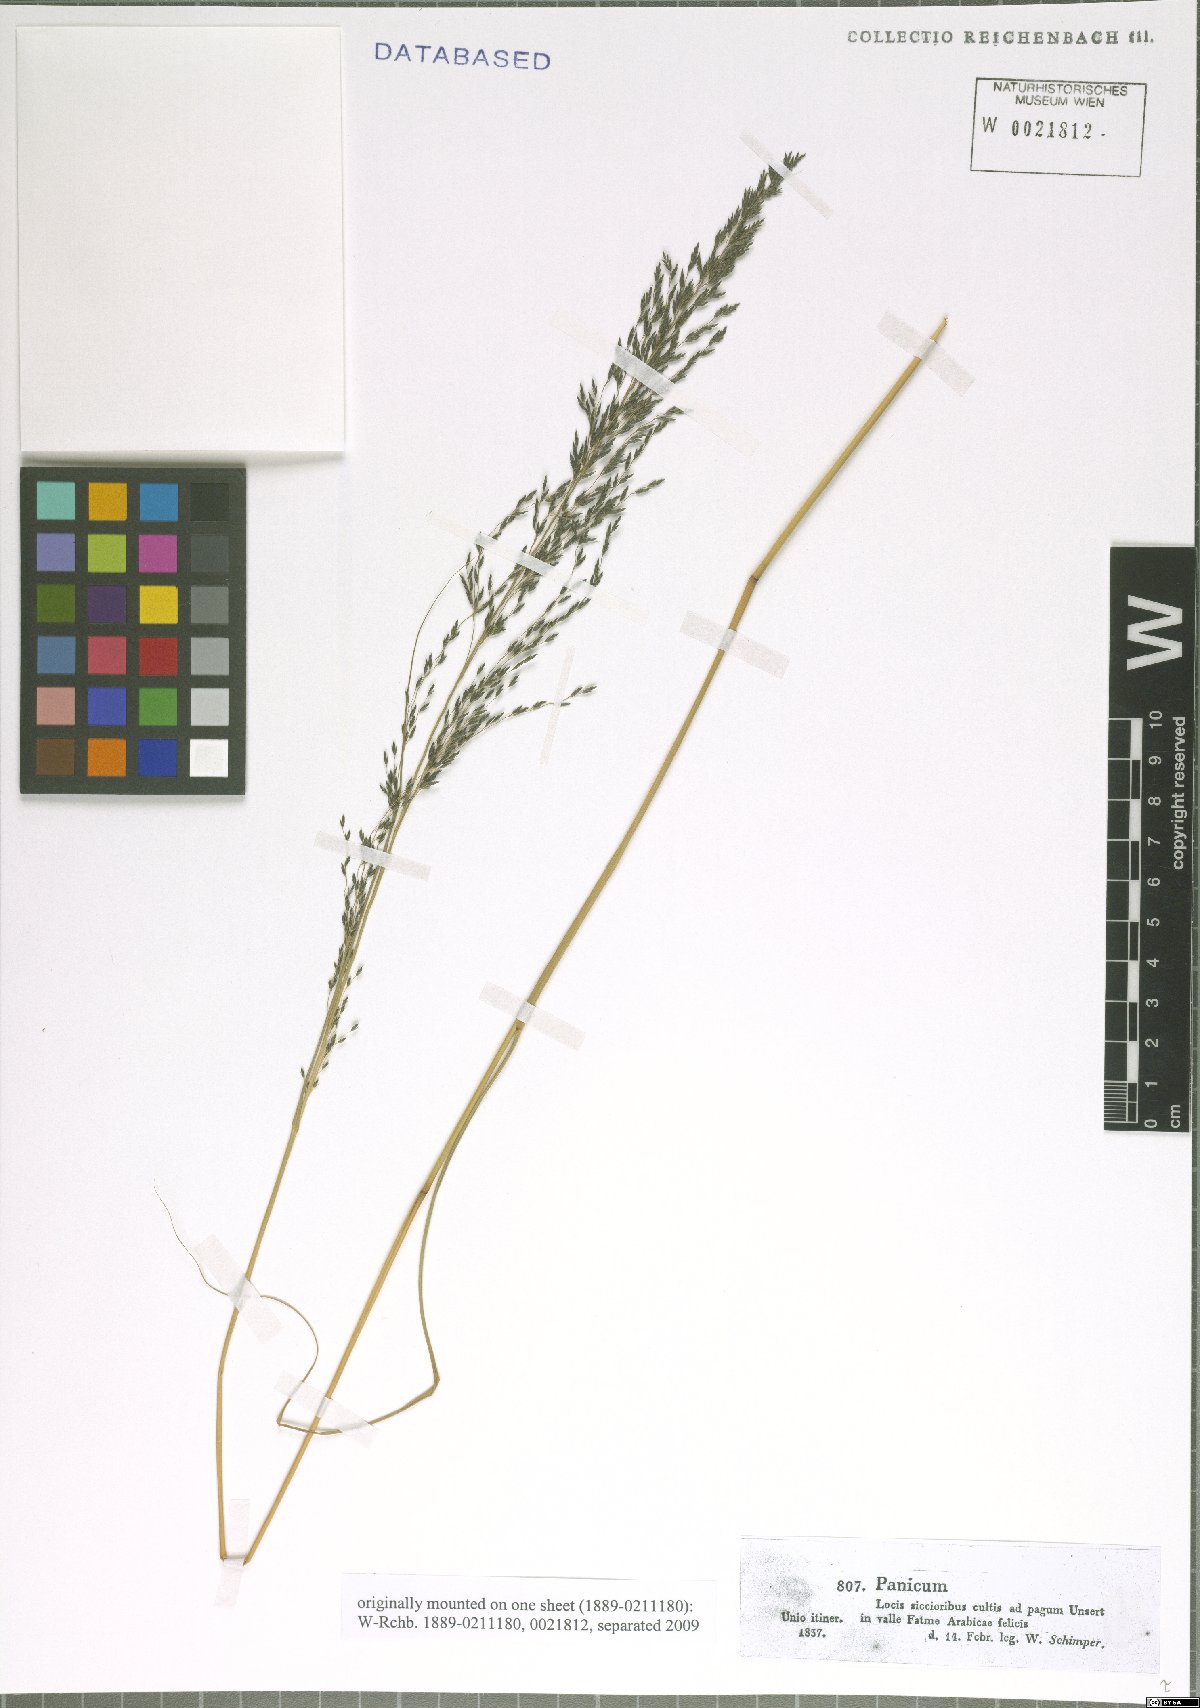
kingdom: Plantae
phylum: Tracheophyta
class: Liliopsida
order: Poales
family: Poaceae
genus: Panicum
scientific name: Panicum
